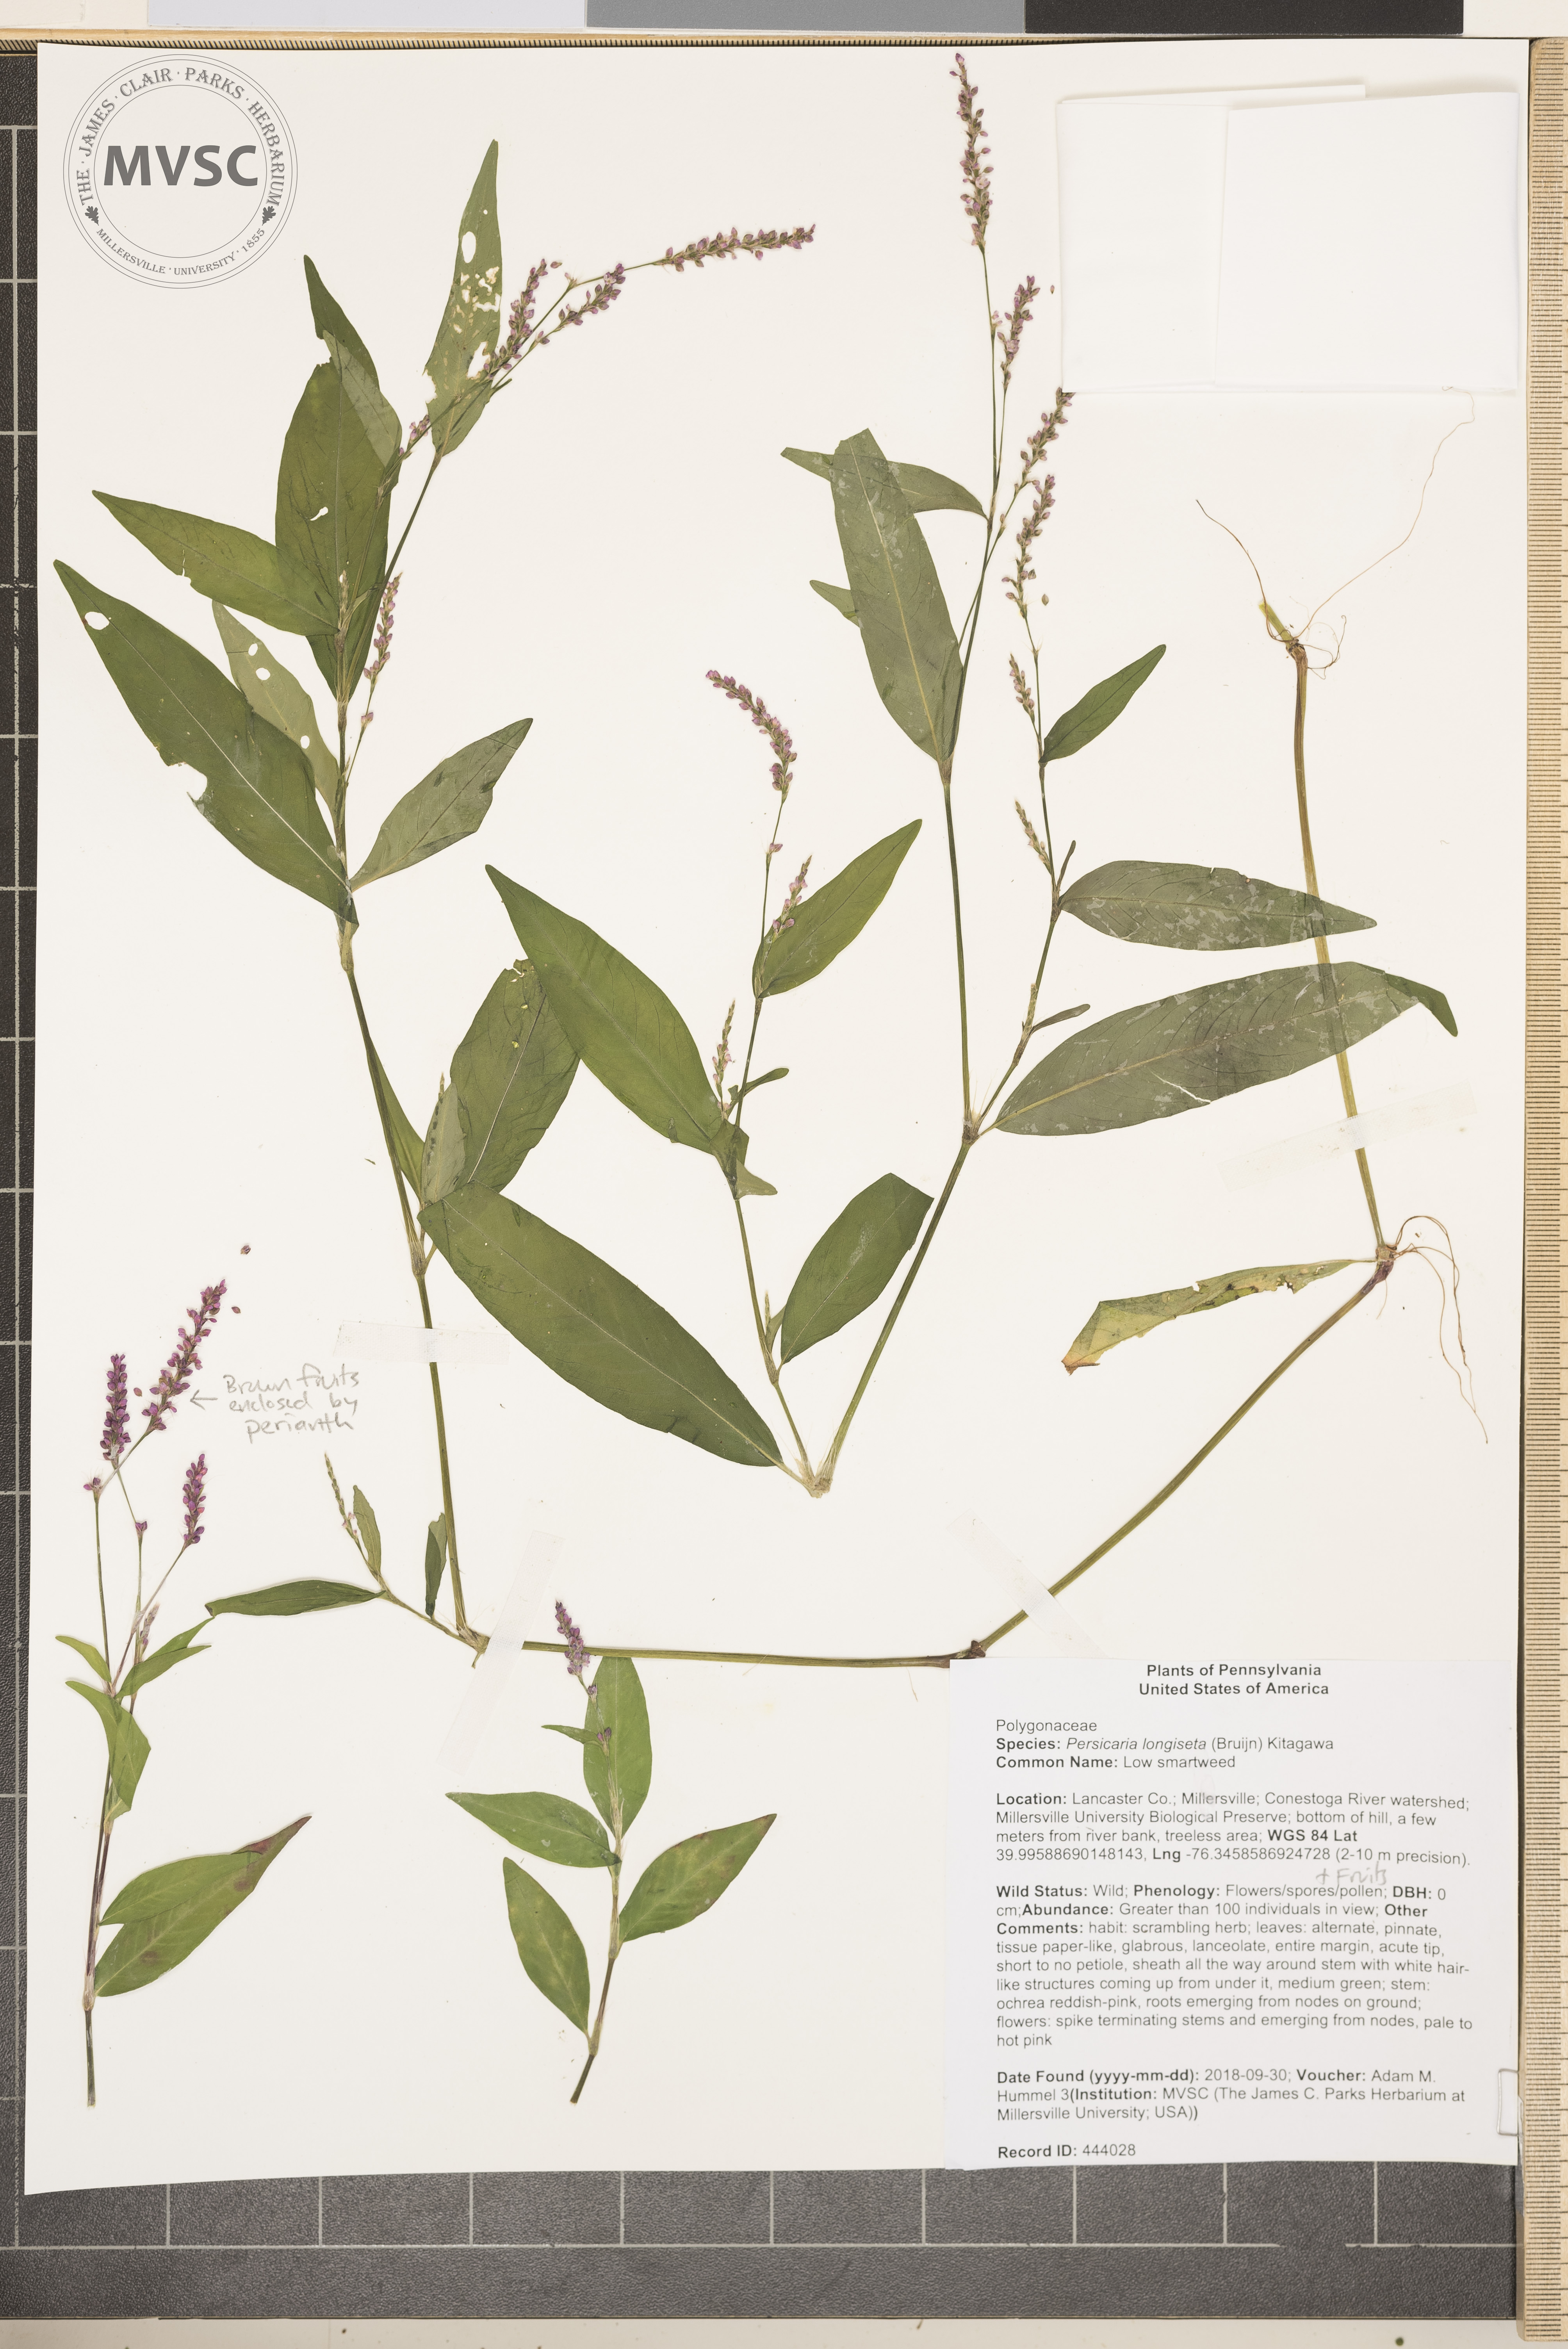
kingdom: Plantae
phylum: Tracheophyta
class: Magnoliopsida
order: Caryophyllales
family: Polygonaceae
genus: Persicaria
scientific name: Persicaria longiseta
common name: Low smartweed
